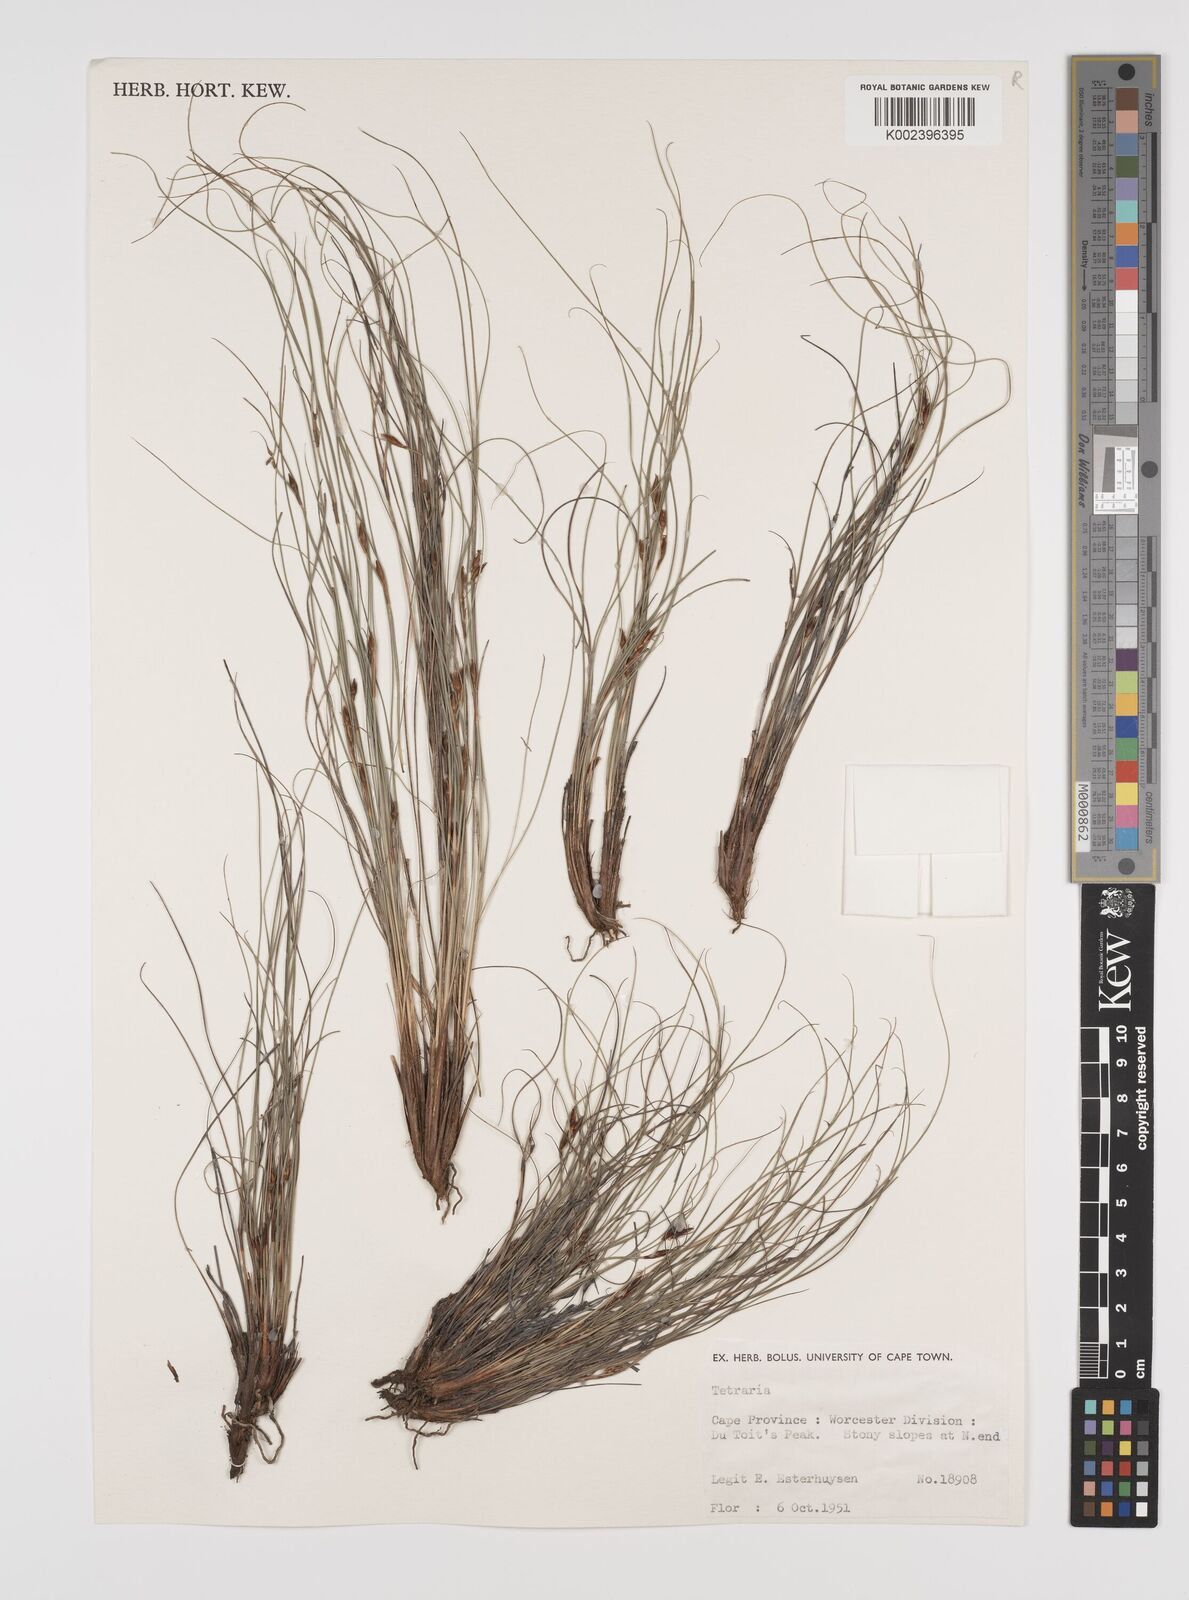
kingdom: Plantae
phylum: Tracheophyta
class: Liliopsida
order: Poales
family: Cyperaceae
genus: Tetraria
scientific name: Tetraria
